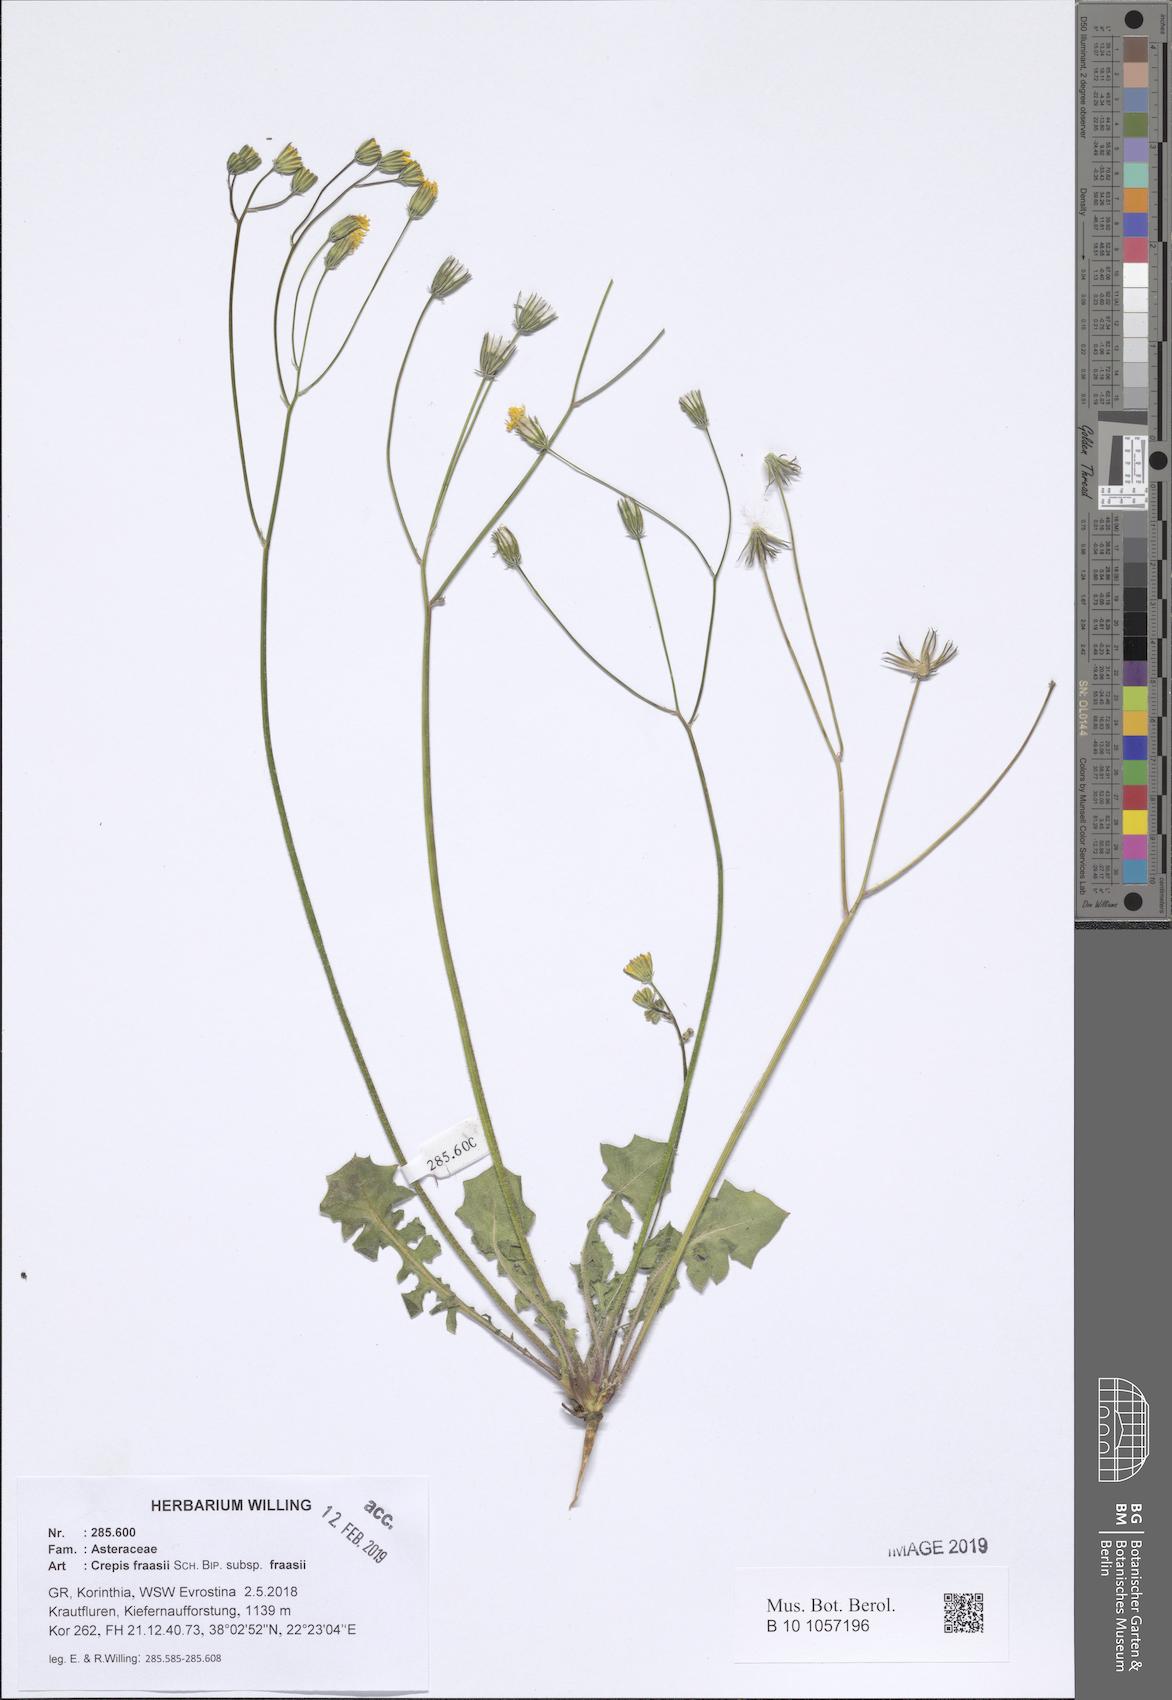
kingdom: Plantae
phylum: Tracheophyta
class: Magnoliopsida
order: Asterales
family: Asteraceae
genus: Crepis
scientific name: Crepis fraasii
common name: Hawk's-beard
